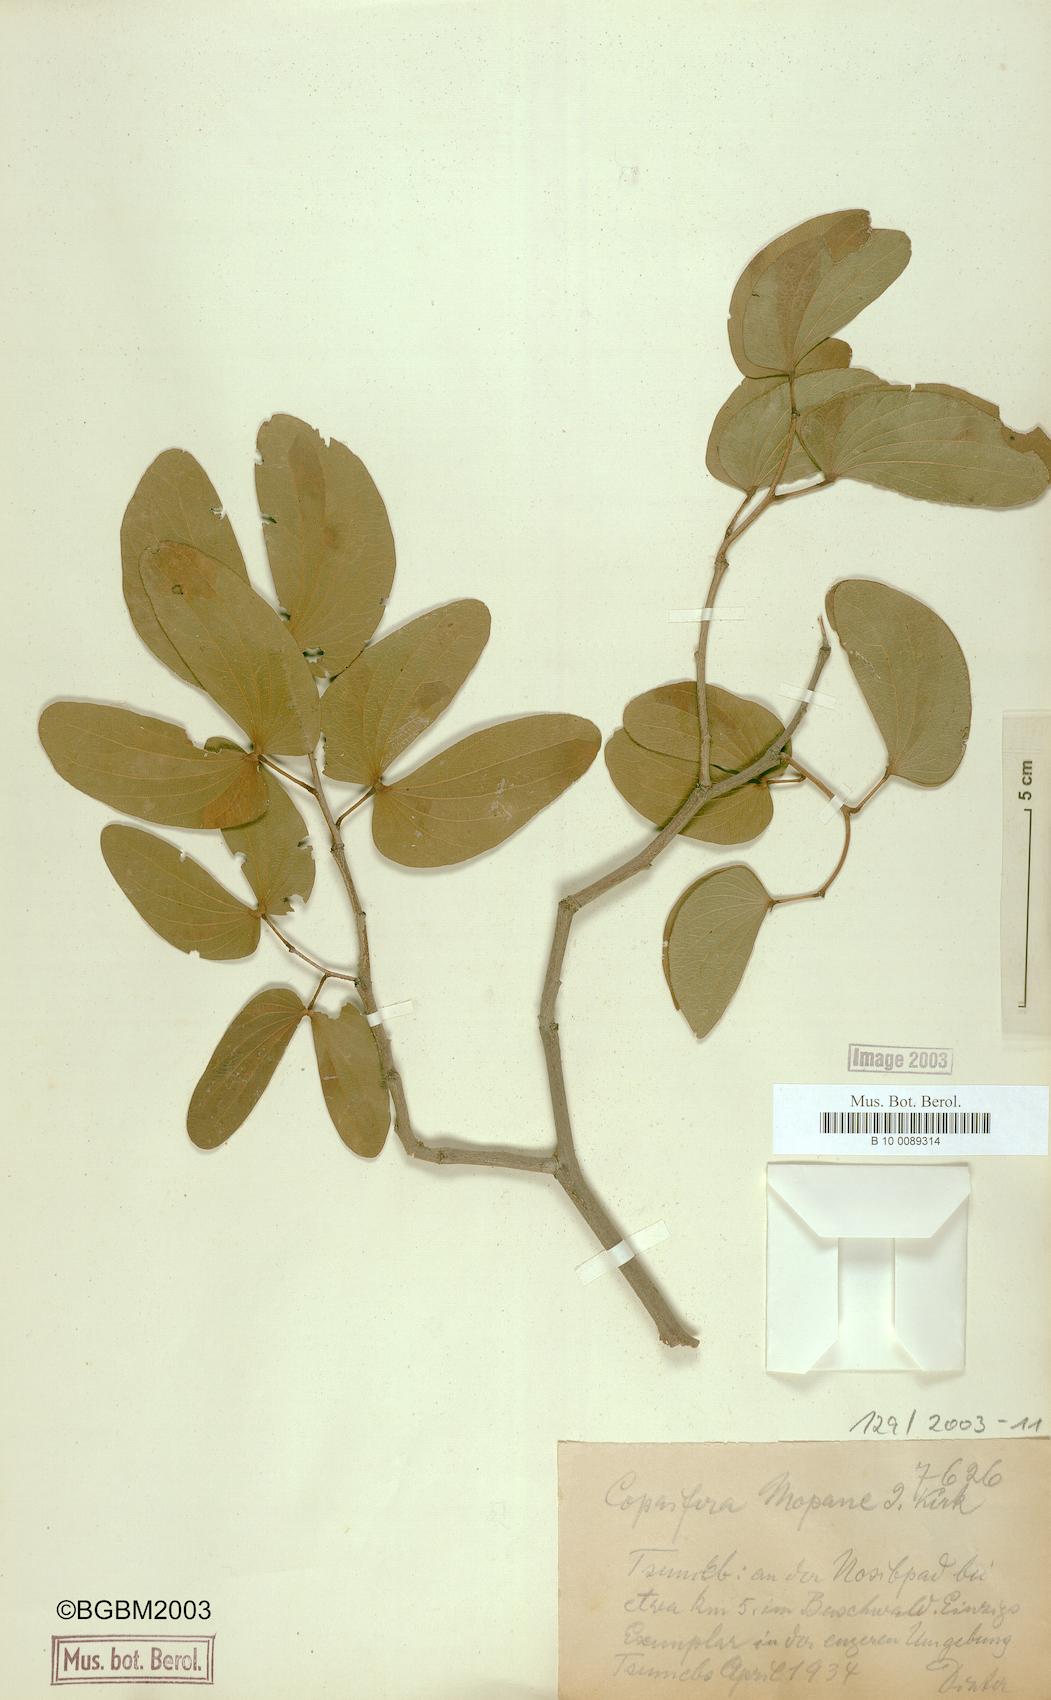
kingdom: Plantae
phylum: Tracheophyta
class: Magnoliopsida
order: Fabales
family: Fabaceae
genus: Guibourtia
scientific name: Guibourtia coleosperma
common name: African rosewoood
